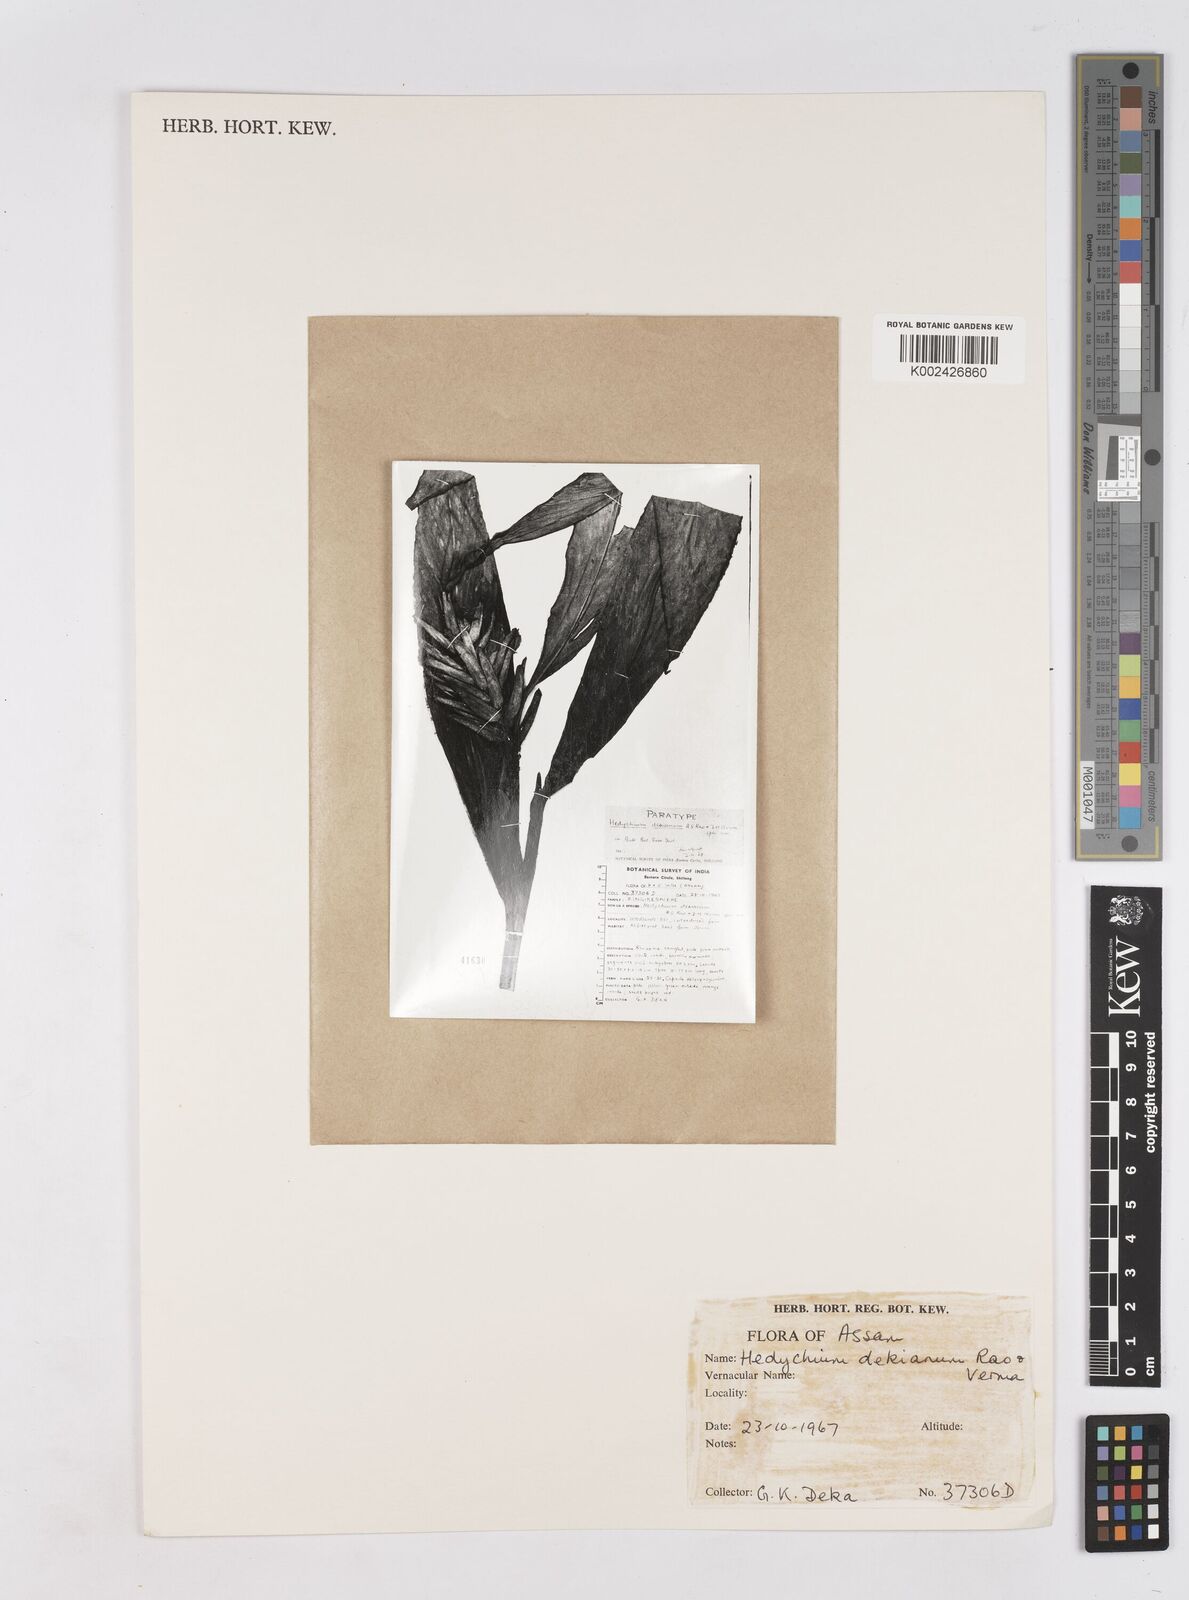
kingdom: Plantae
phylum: Tracheophyta
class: Liliopsida
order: Zingiberales
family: Zingiberaceae
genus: Hedychium
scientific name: Hedychium forrestii
